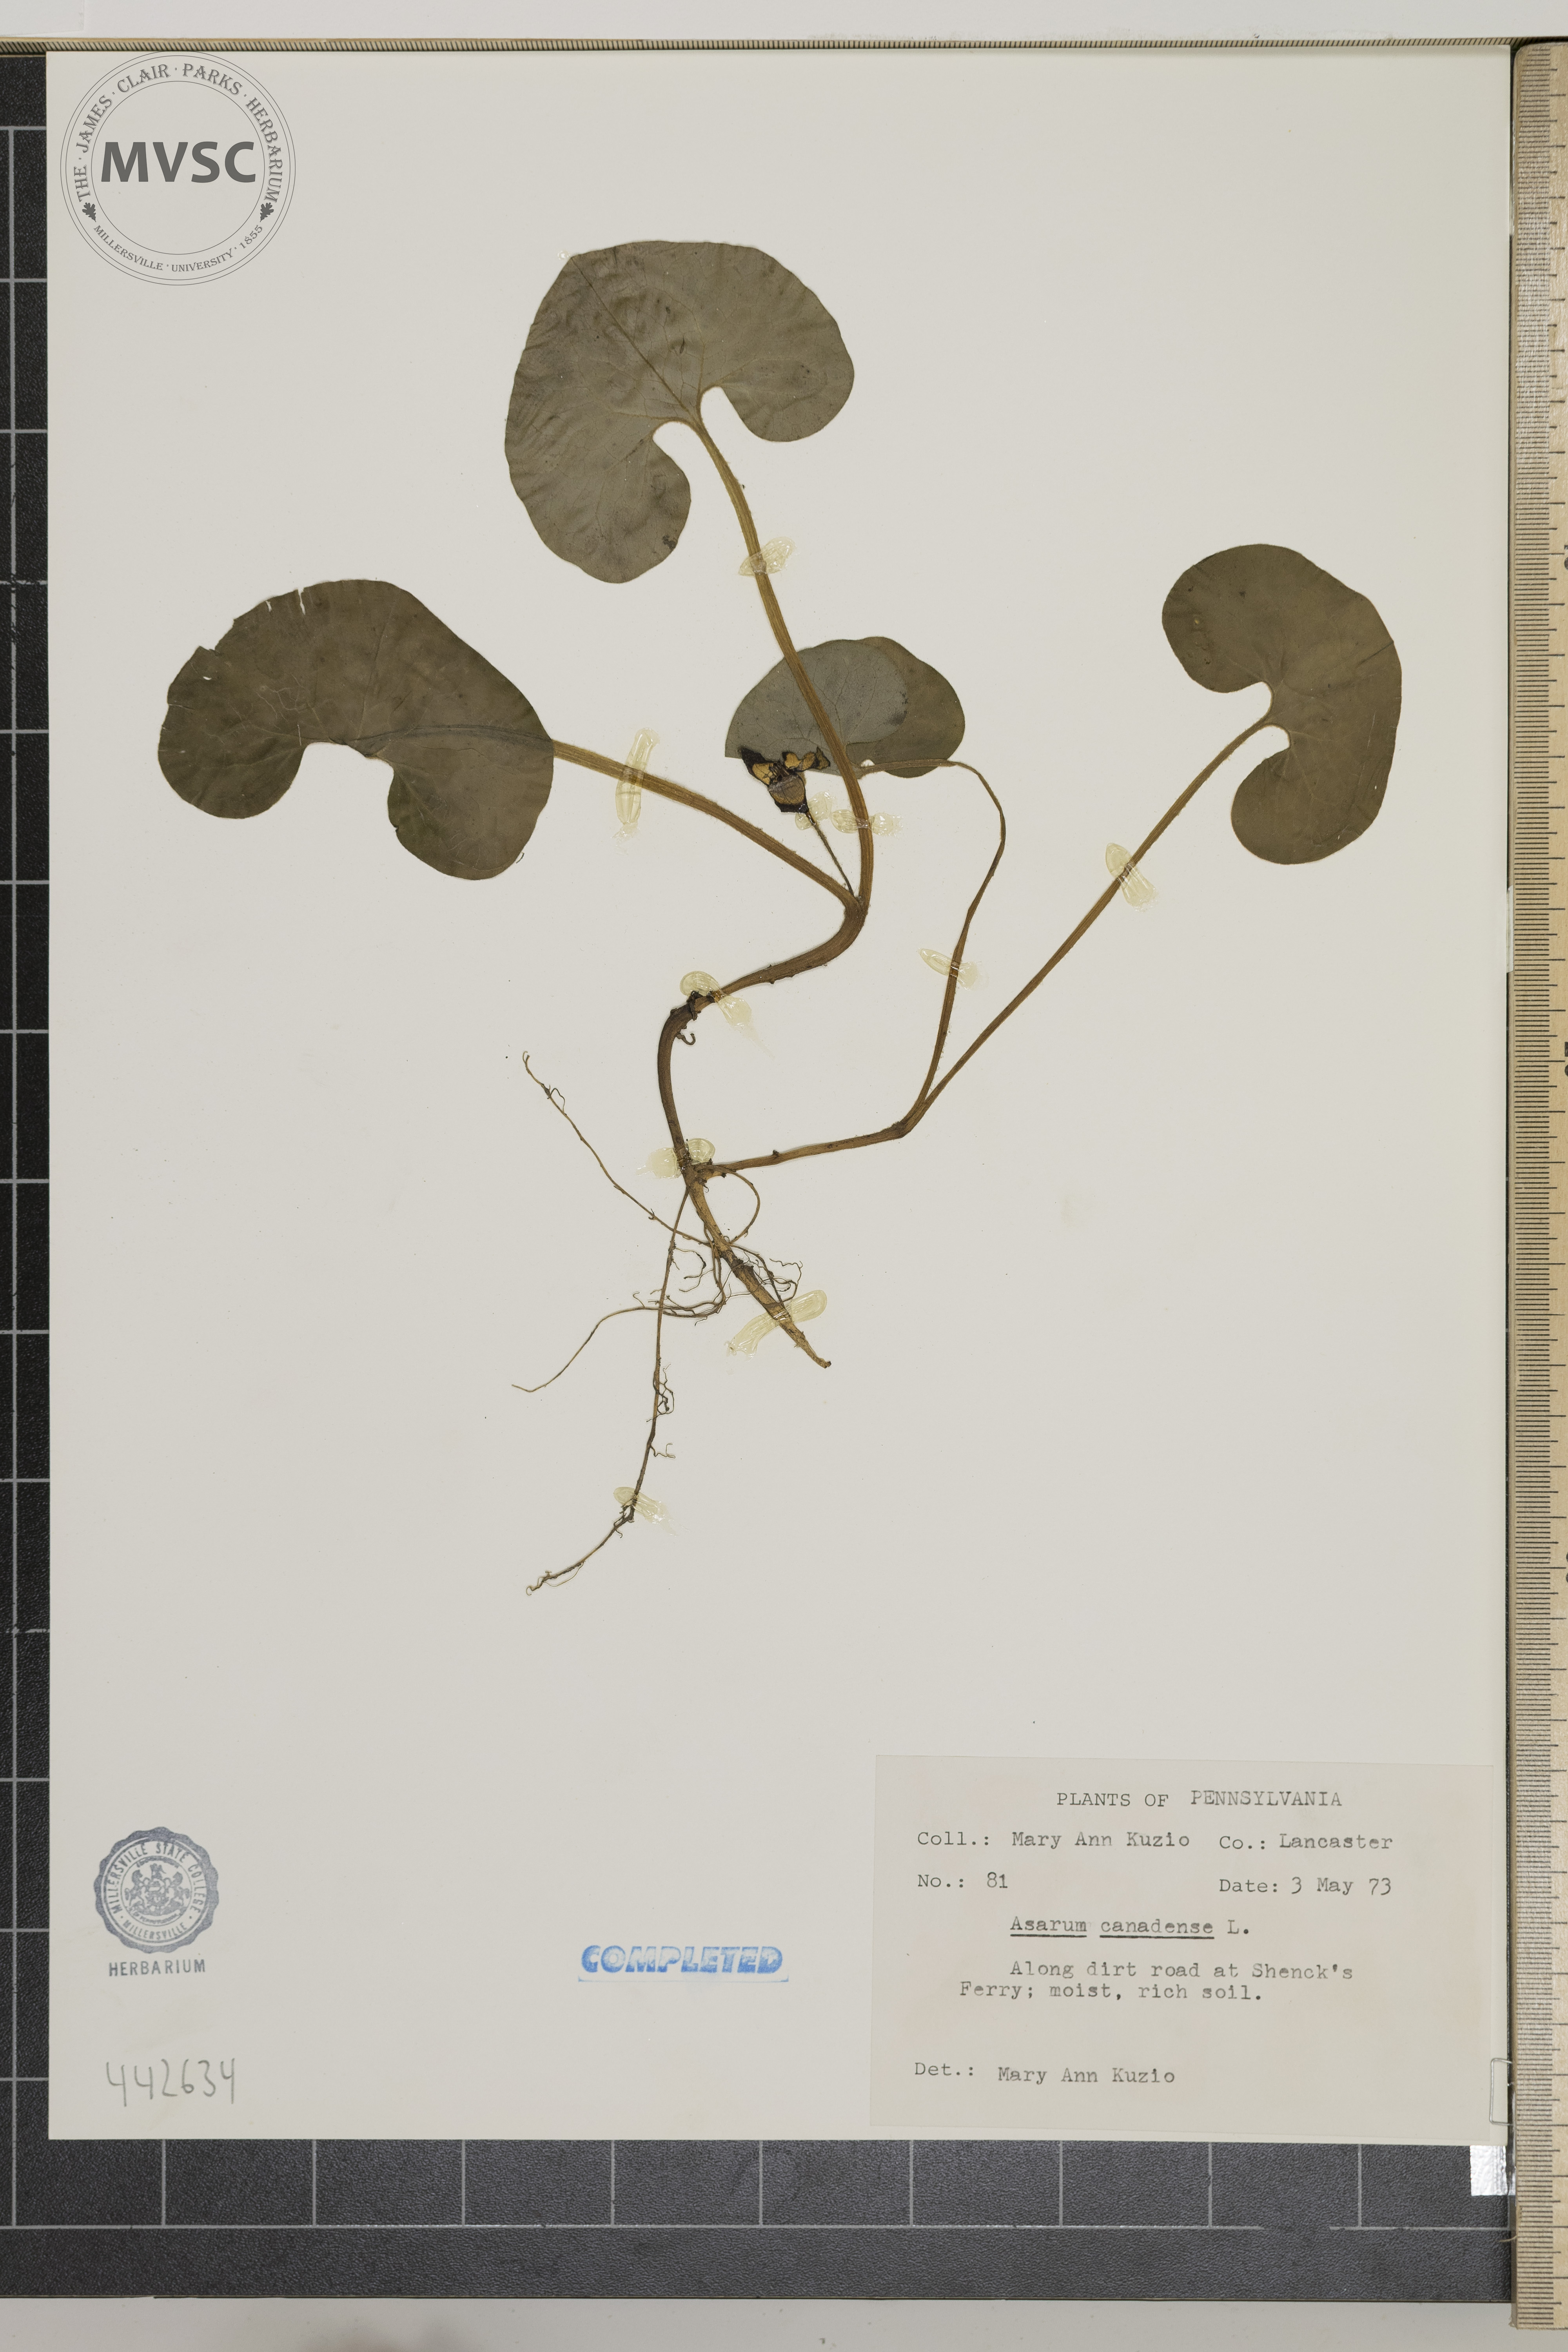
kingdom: Plantae
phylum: Tracheophyta
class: Magnoliopsida
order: Piperales
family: Aristolochiaceae
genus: Asarum
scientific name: Asarum canadense
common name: Wild ginger
